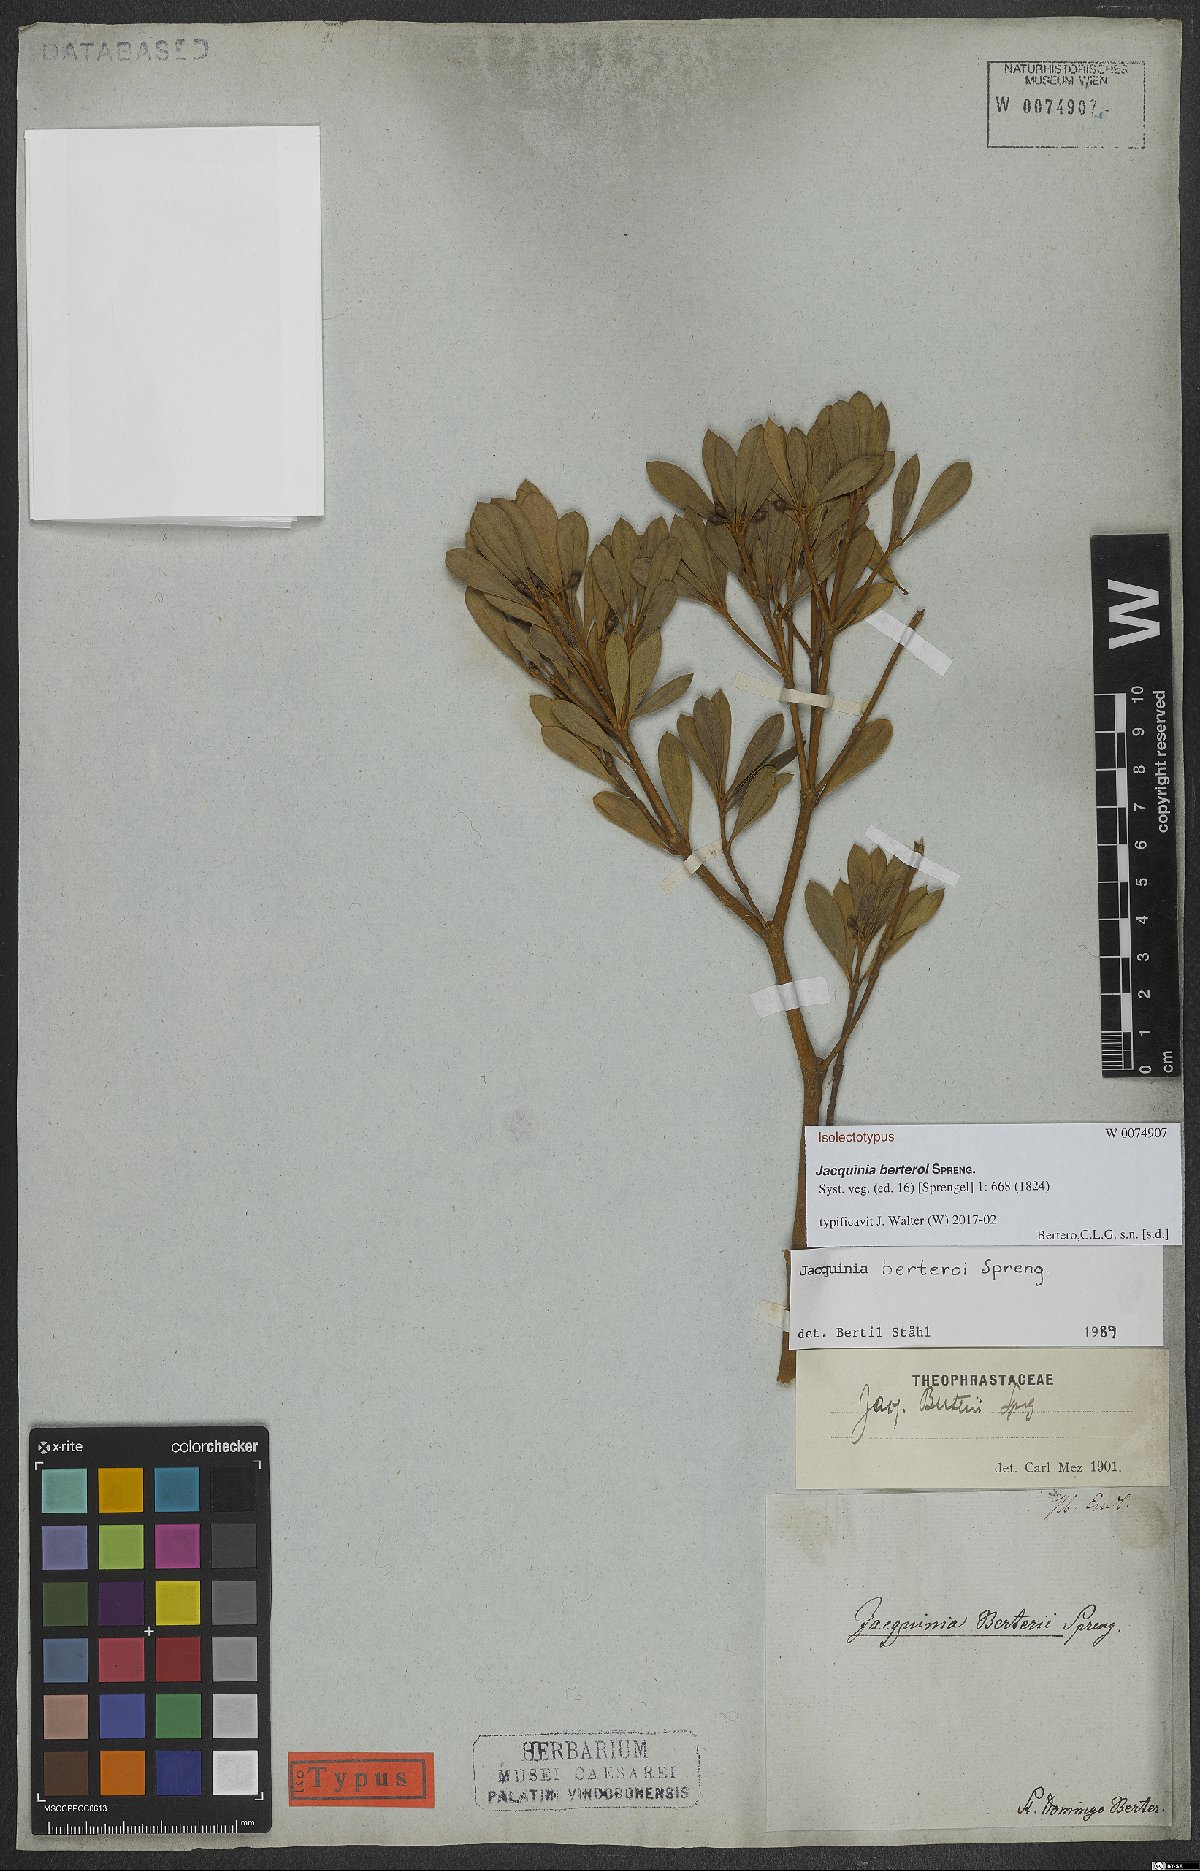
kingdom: Plantae
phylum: Tracheophyta
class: Magnoliopsida
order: Ericales
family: Primulaceae
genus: Jacquinia
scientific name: Jacquinia berteroi
